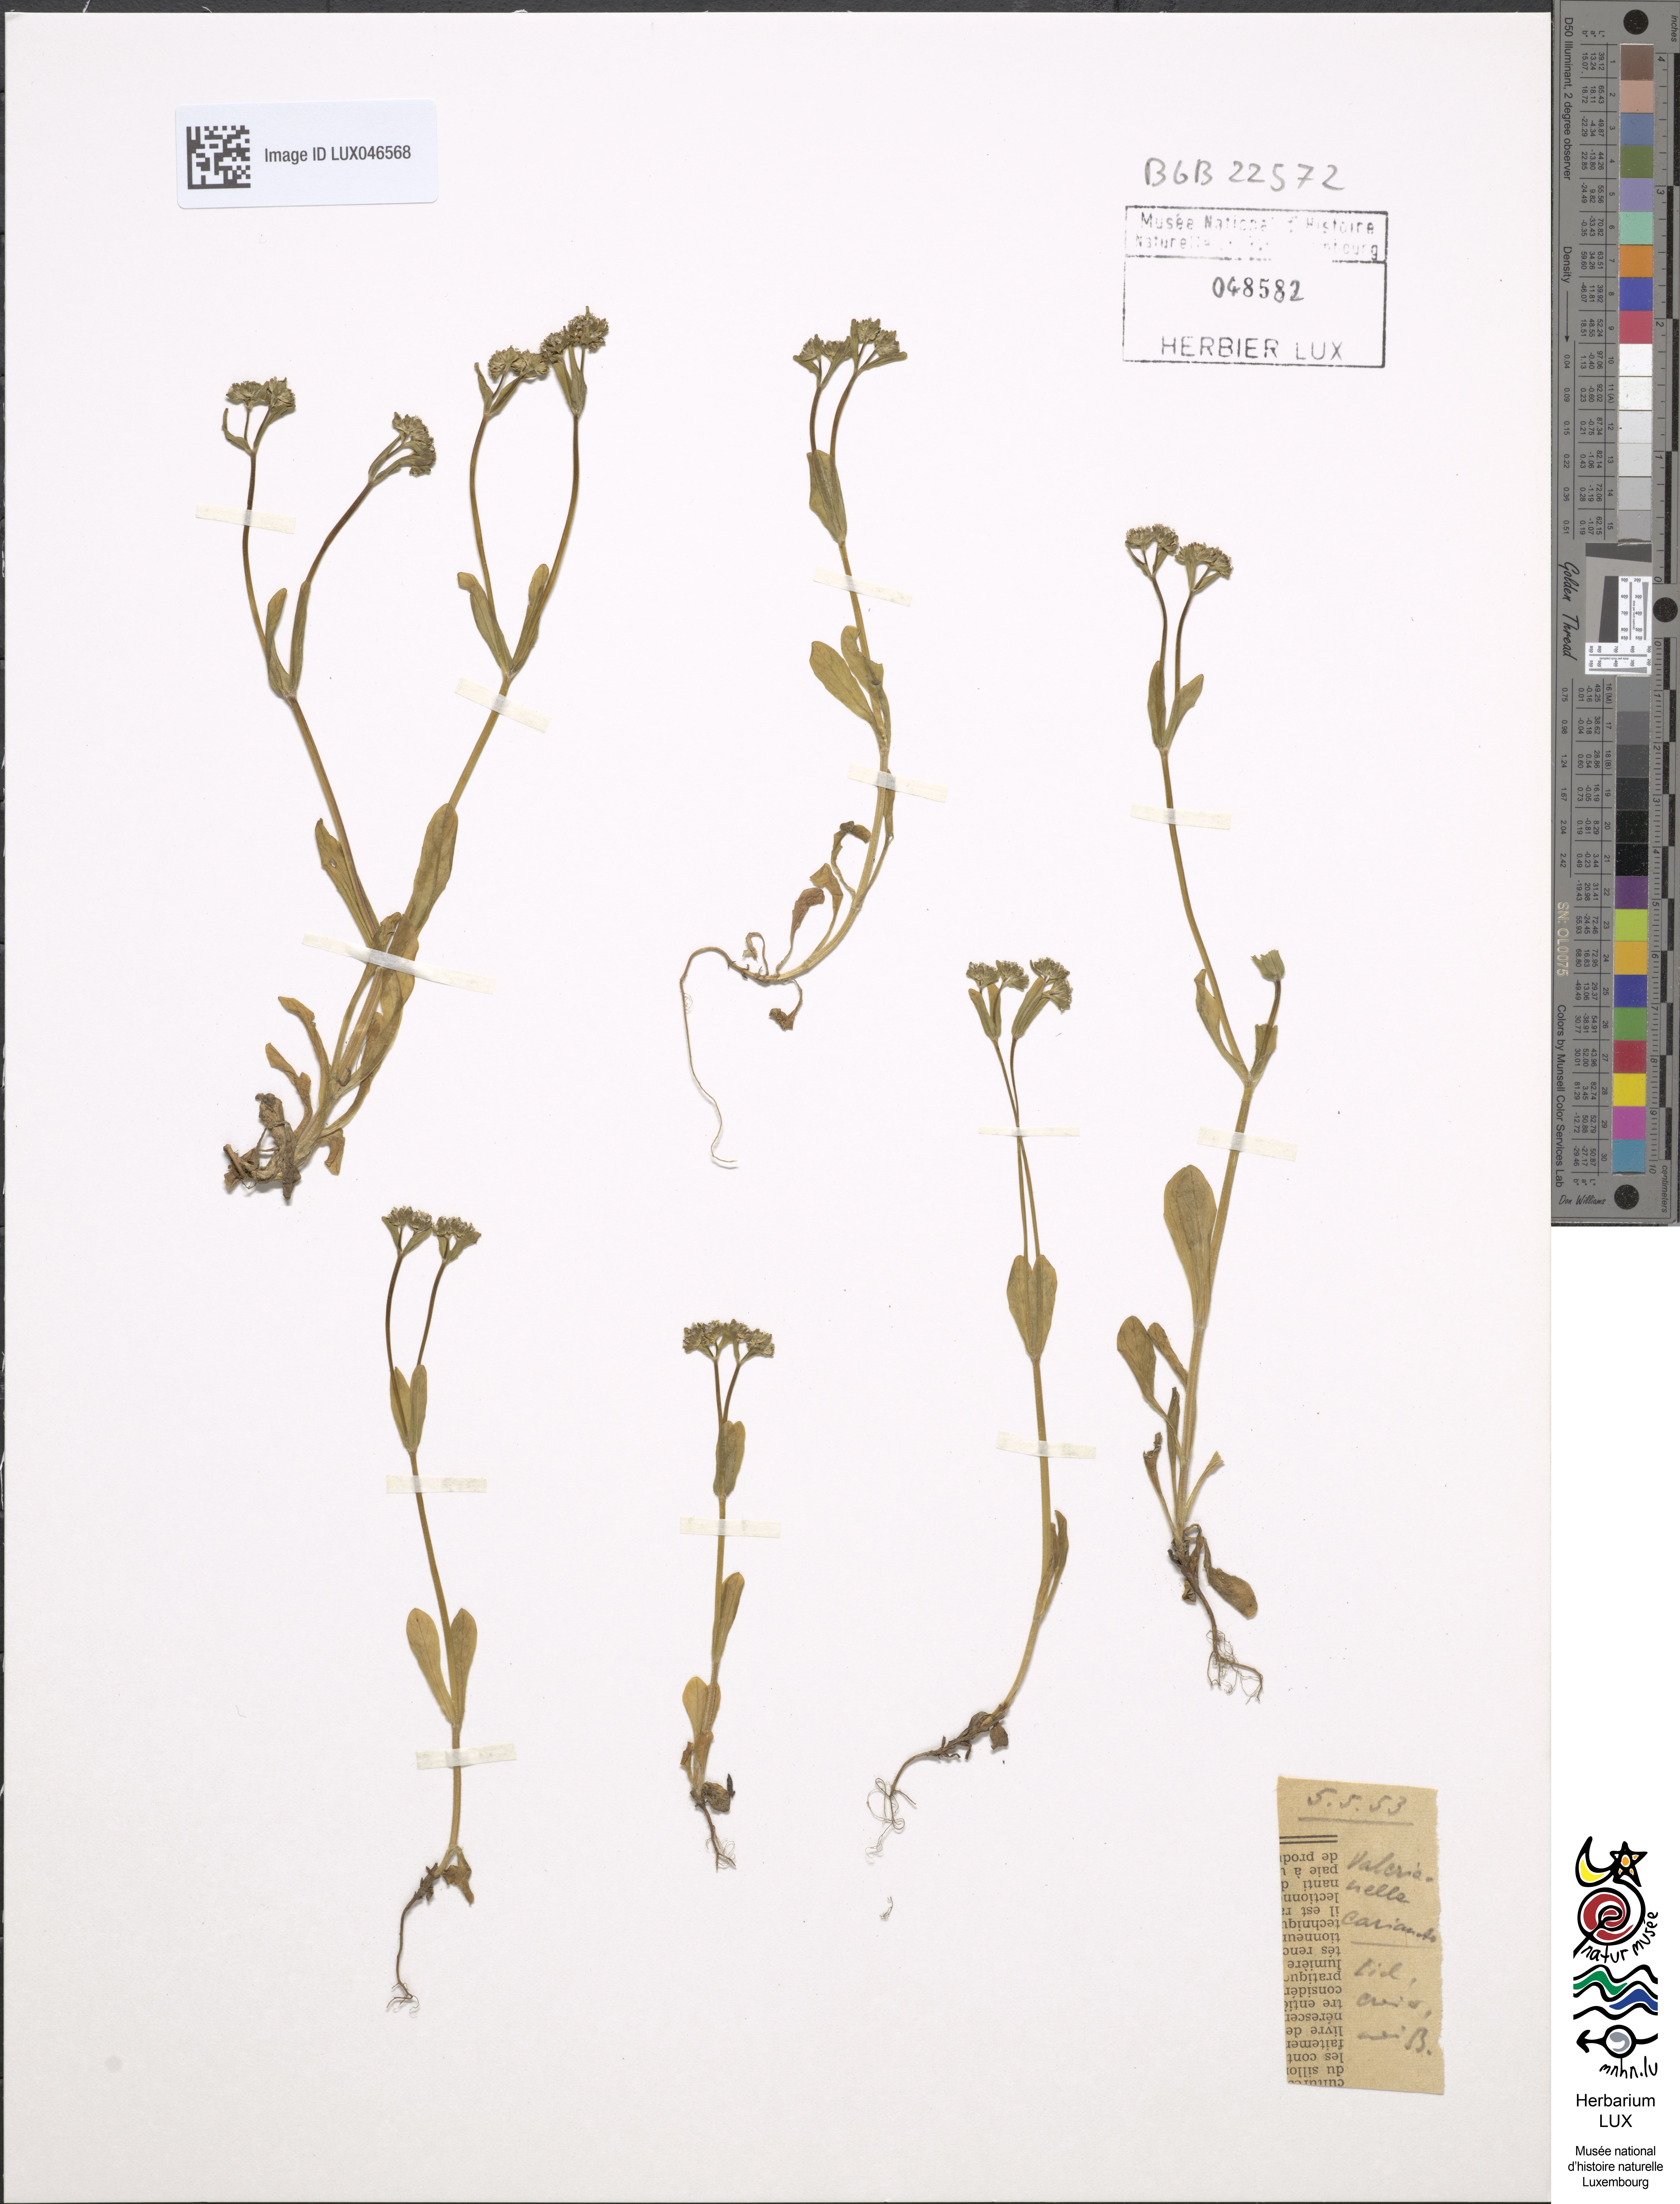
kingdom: Plantae
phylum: Tracheophyta
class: Magnoliopsida
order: Dipsacales
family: Caprifoliaceae
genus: Valerianella
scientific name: Valerianella carinata
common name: Keeled-fruited cornsalad
